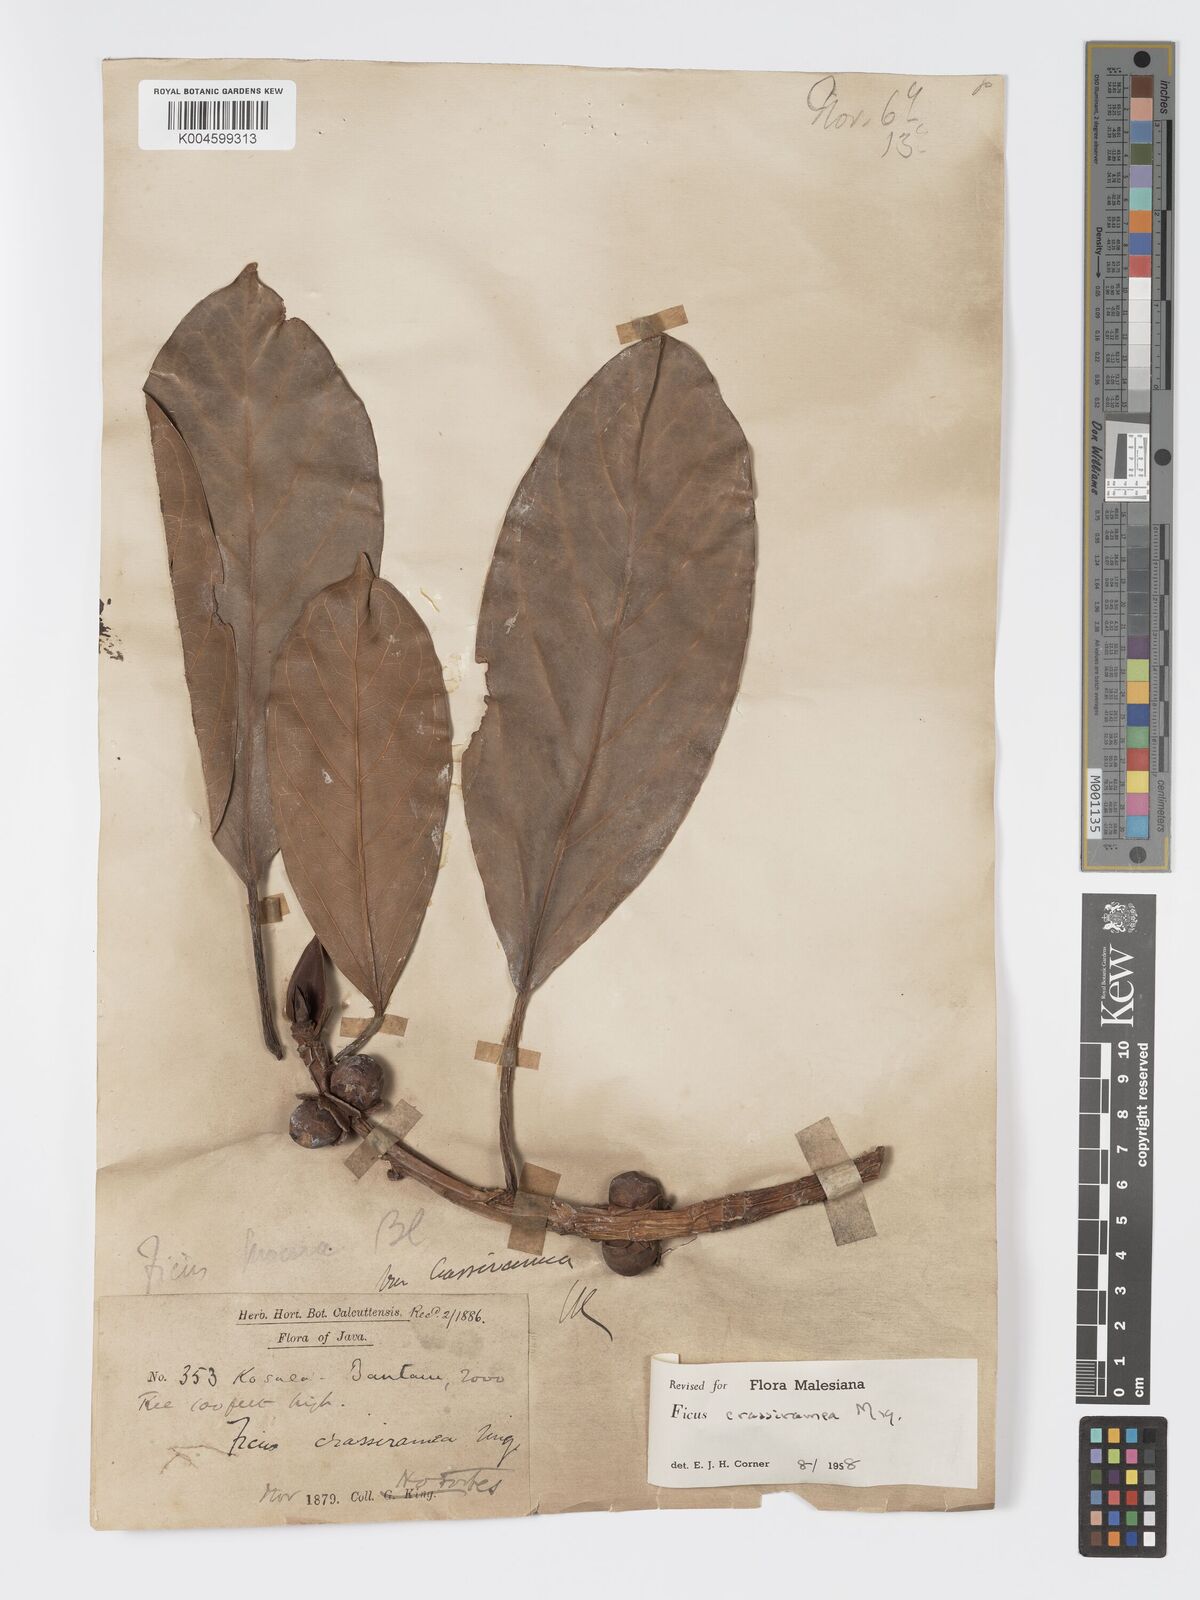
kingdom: Plantae
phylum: Tracheophyta
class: Magnoliopsida
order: Rosales
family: Moraceae
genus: Ficus
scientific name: Ficus crassiramea
